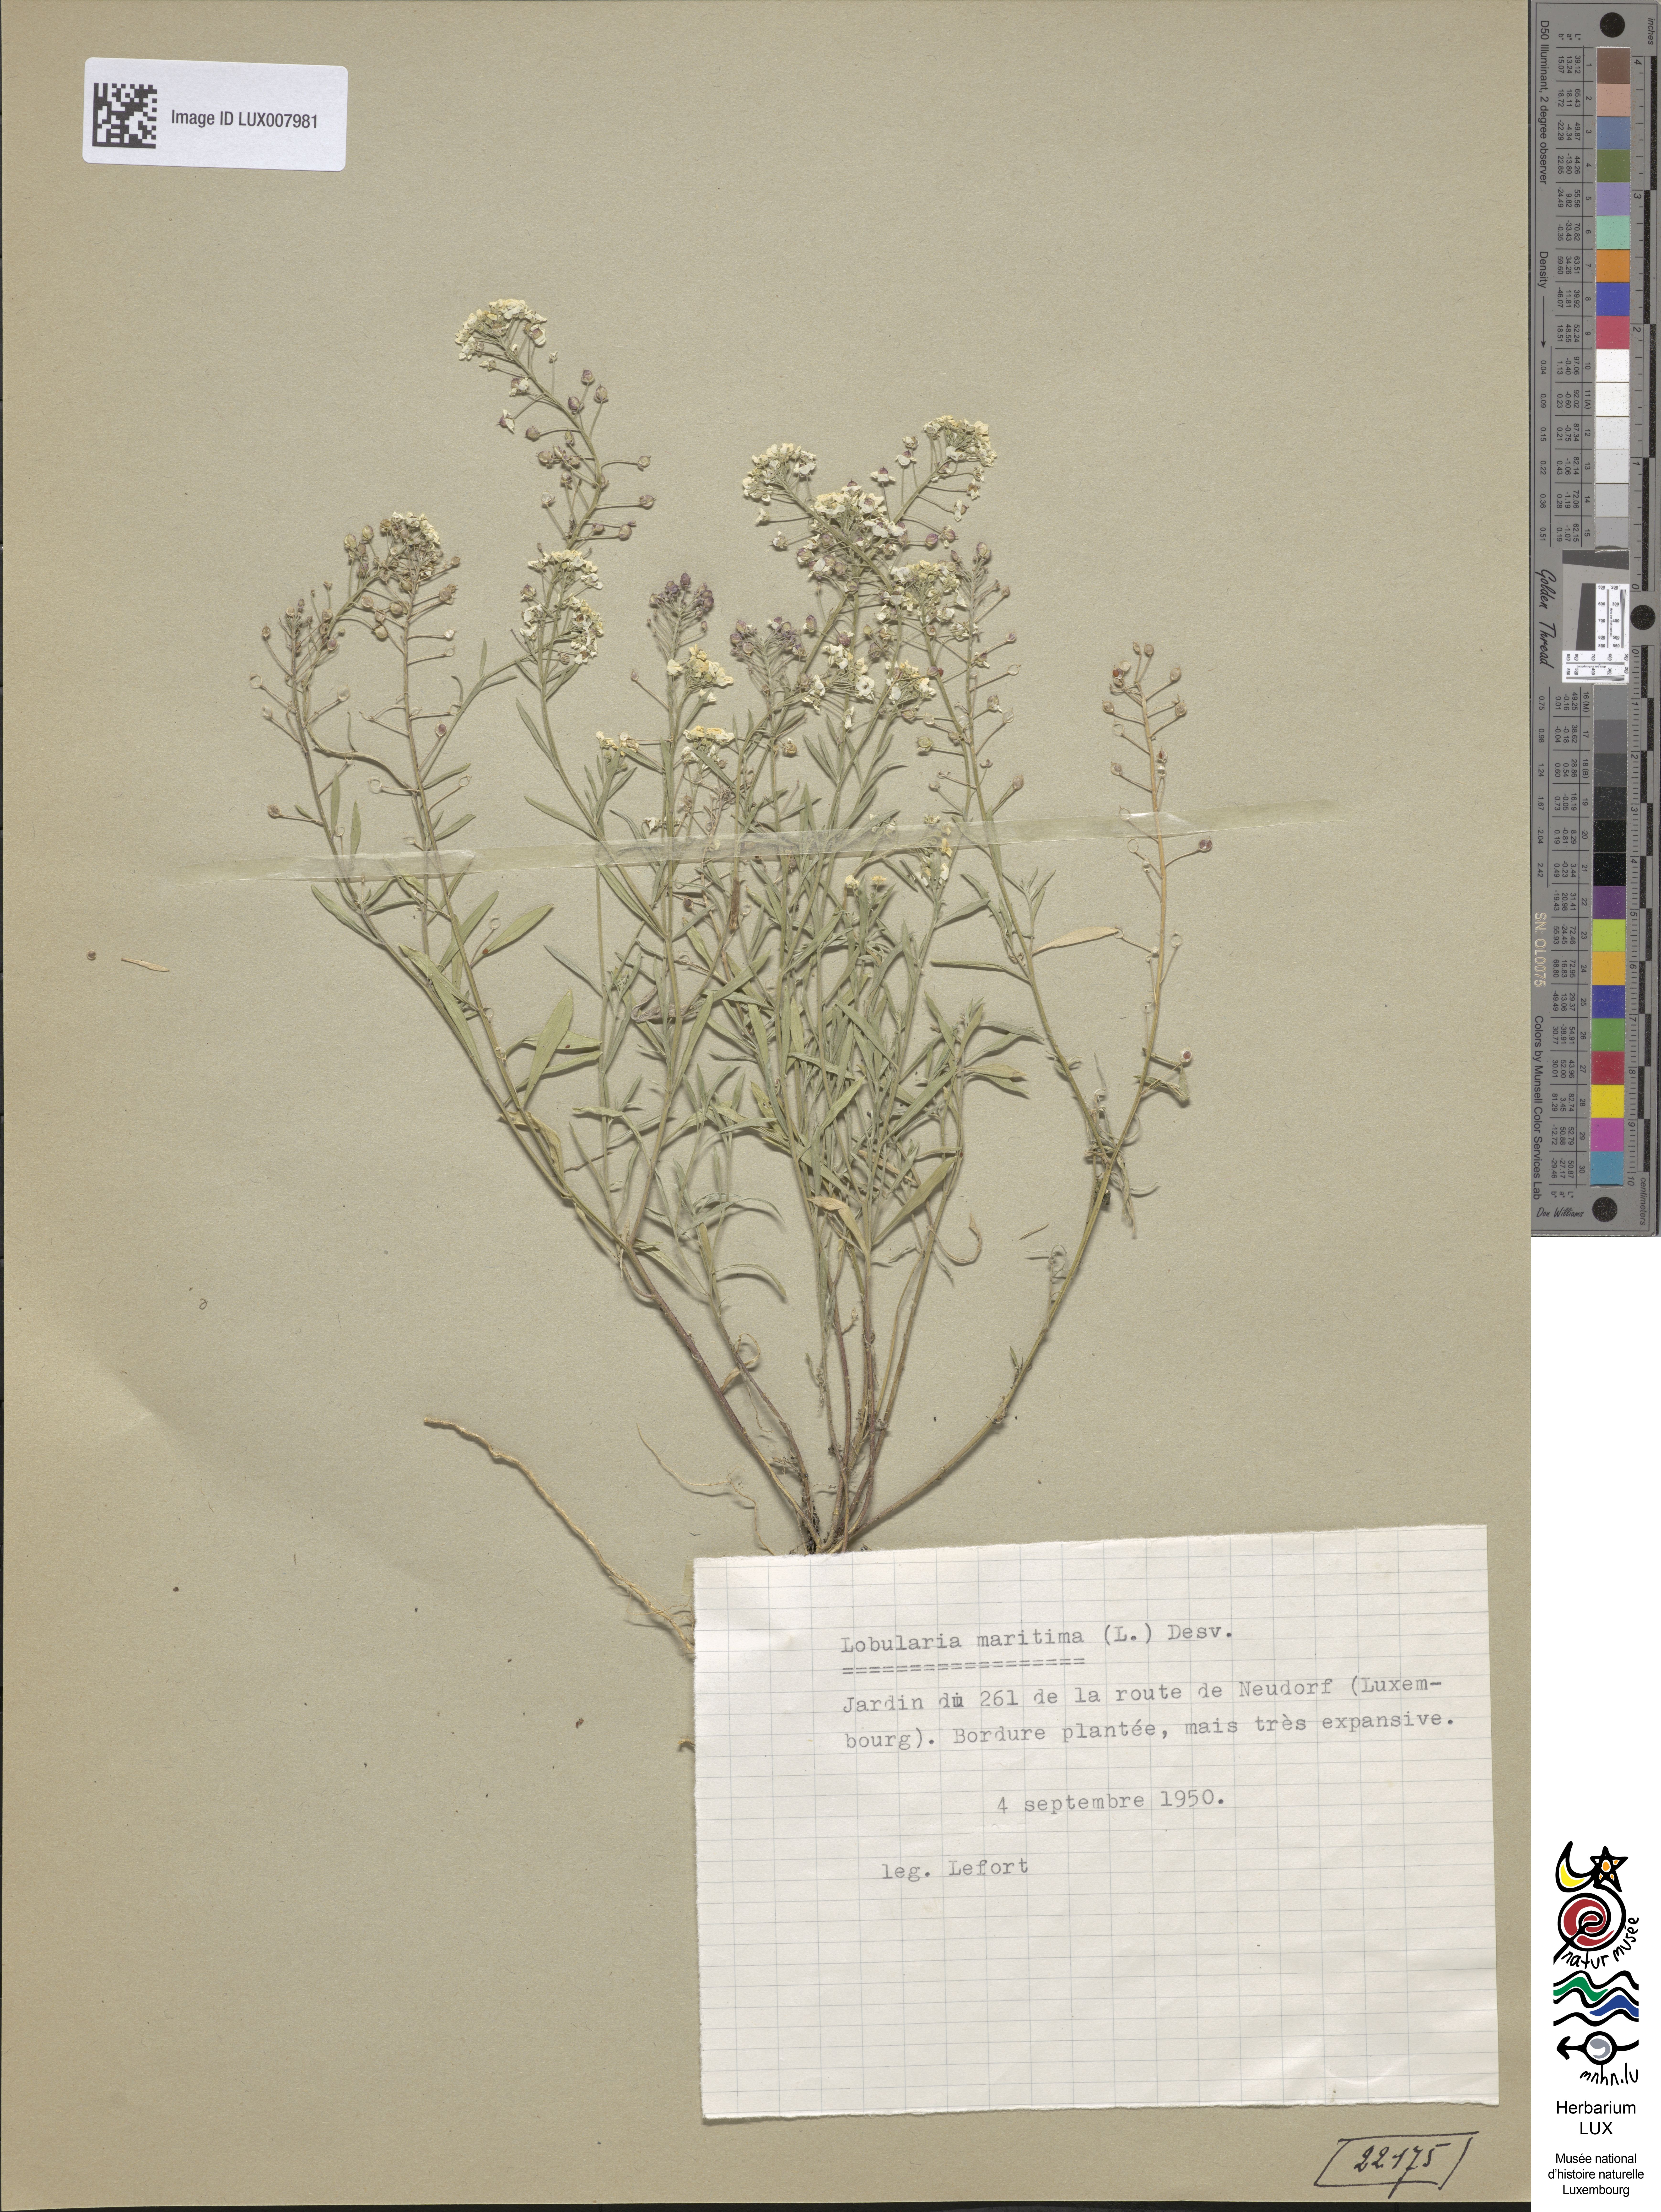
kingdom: Plantae
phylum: Tracheophyta
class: Magnoliopsida
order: Brassicales
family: Brassicaceae
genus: Lobularia
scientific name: Lobularia maritima
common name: Sweet alison
